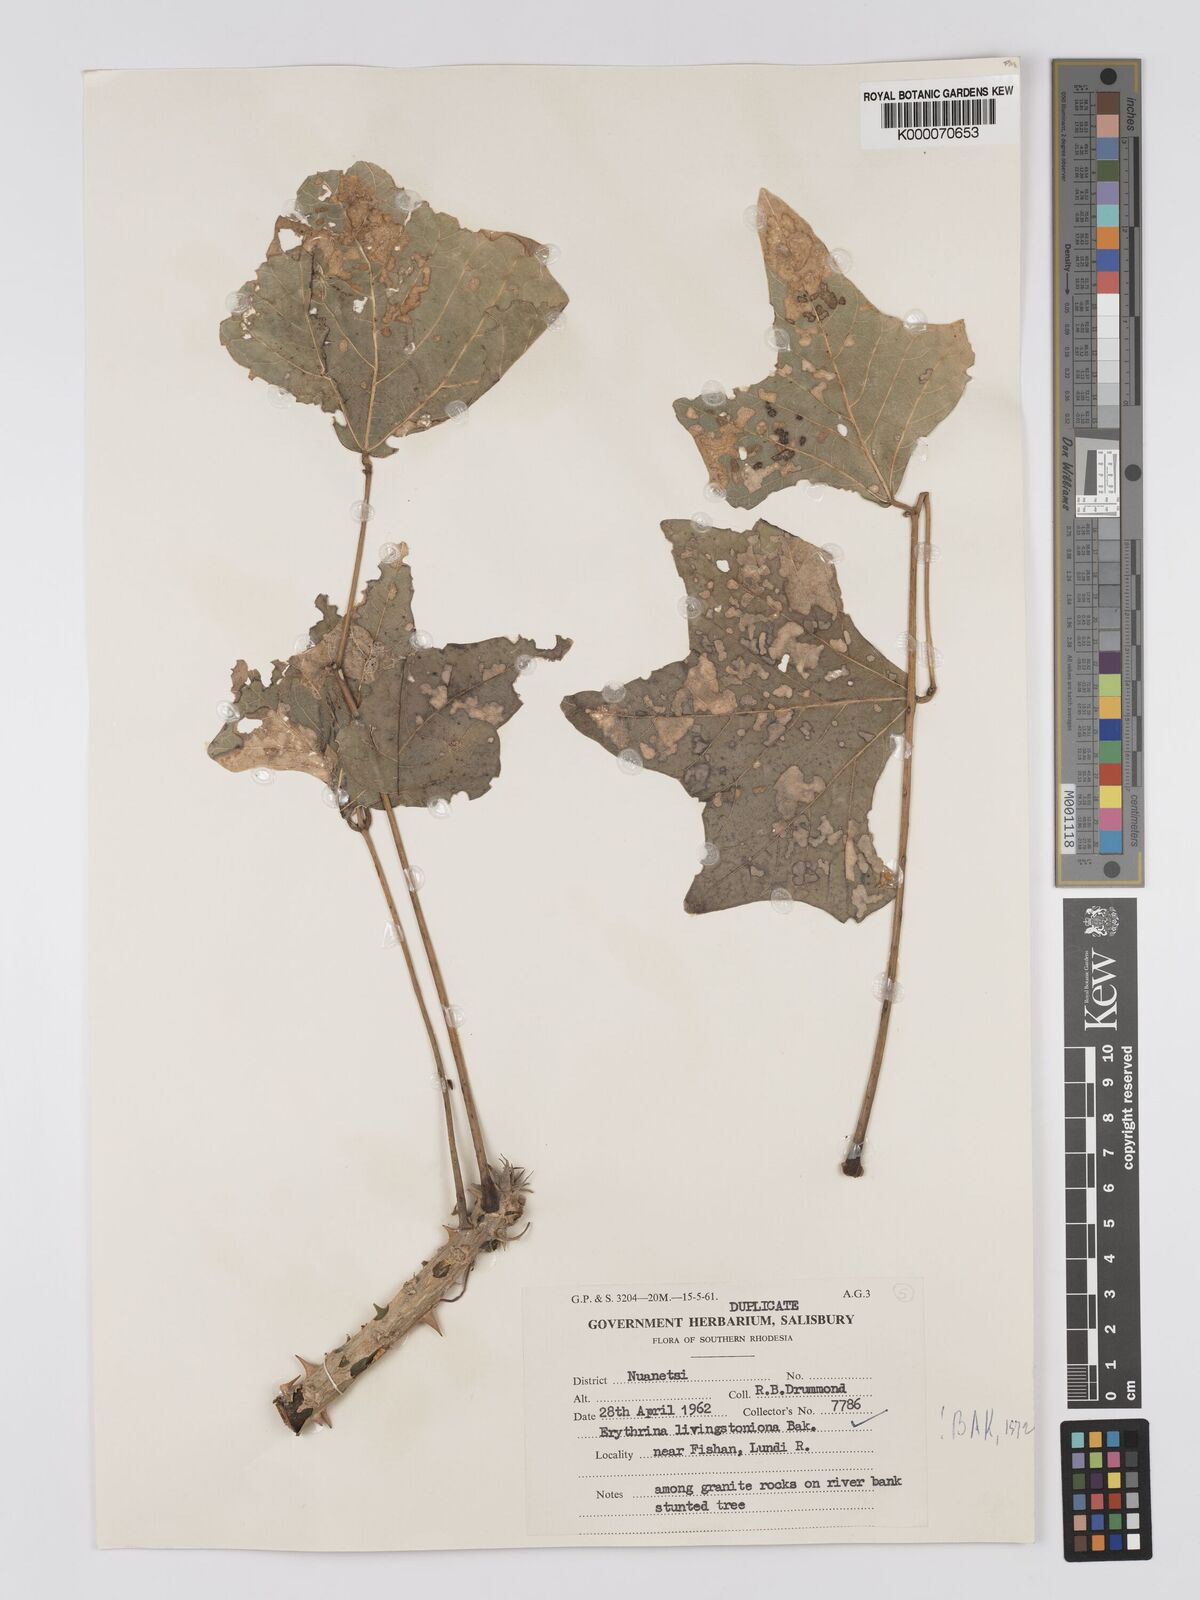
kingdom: Plantae
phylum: Tracheophyta
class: Magnoliopsida
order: Fabales
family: Fabaceae
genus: Erythrina
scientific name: Erythrina
